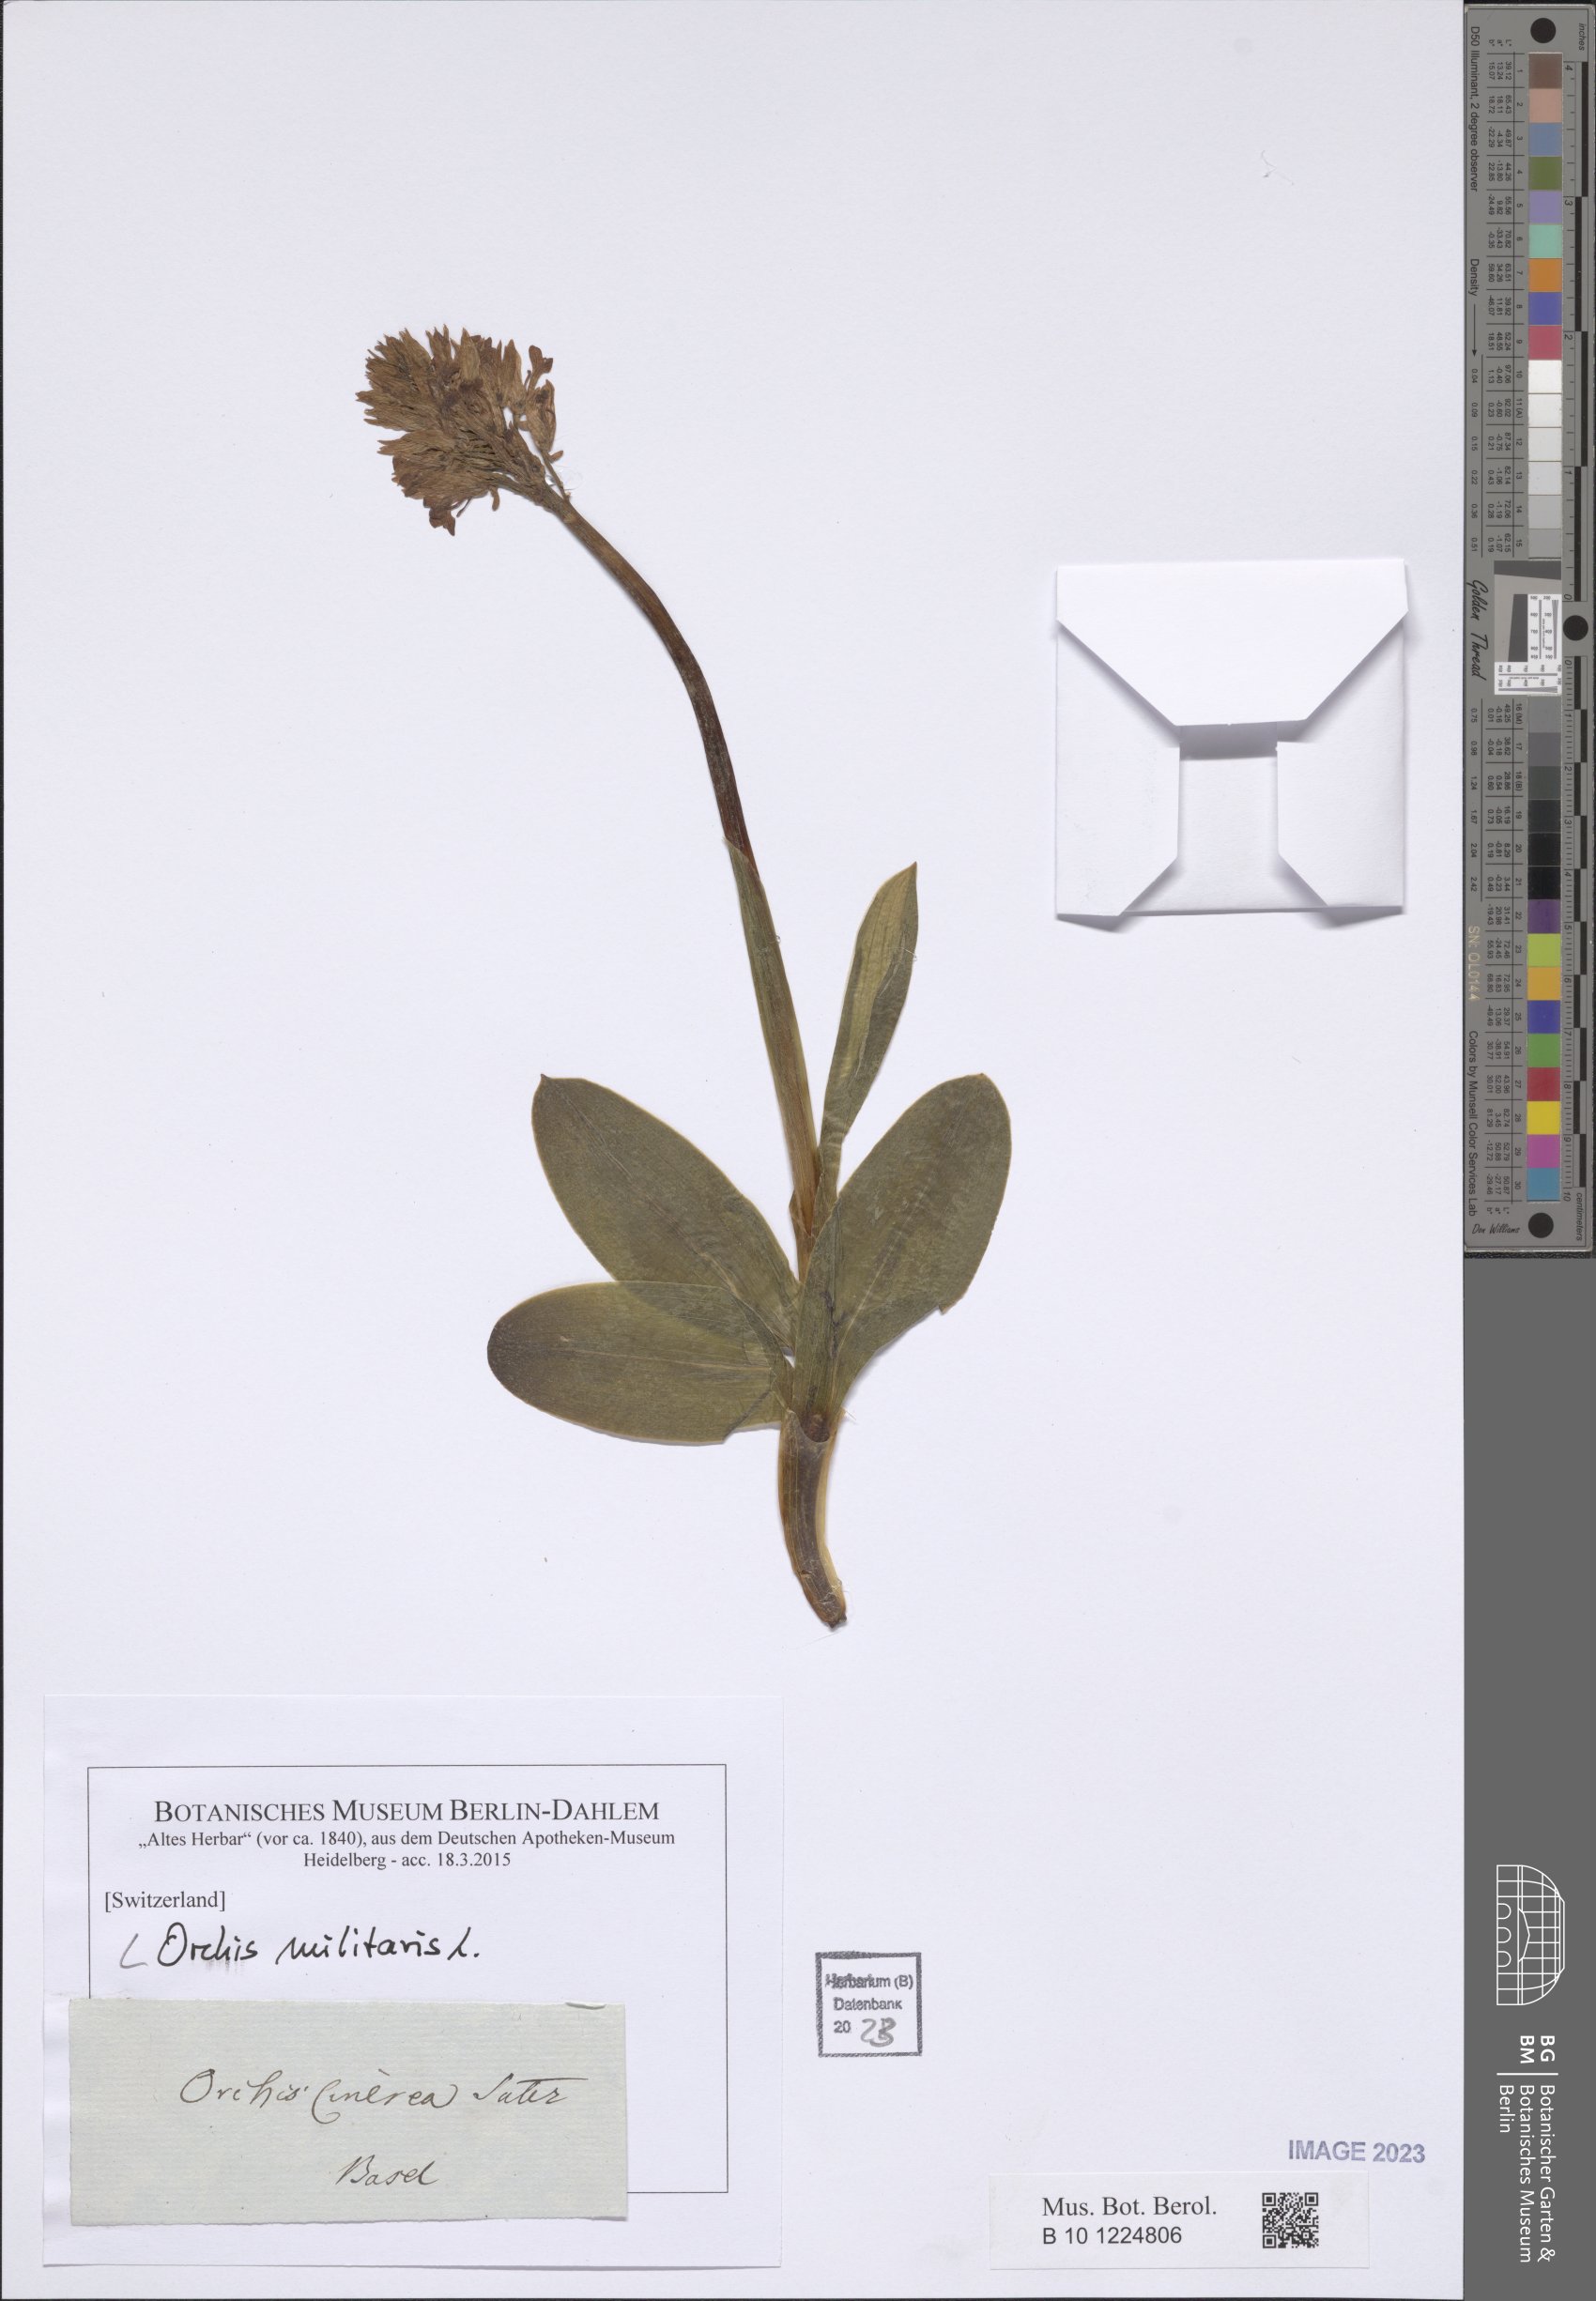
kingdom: Plantae
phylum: Tracheophyta
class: Liliopsida
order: Asparagales
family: Orchidaceae
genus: Orchis
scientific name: Orchis militaris
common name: Military orchid
